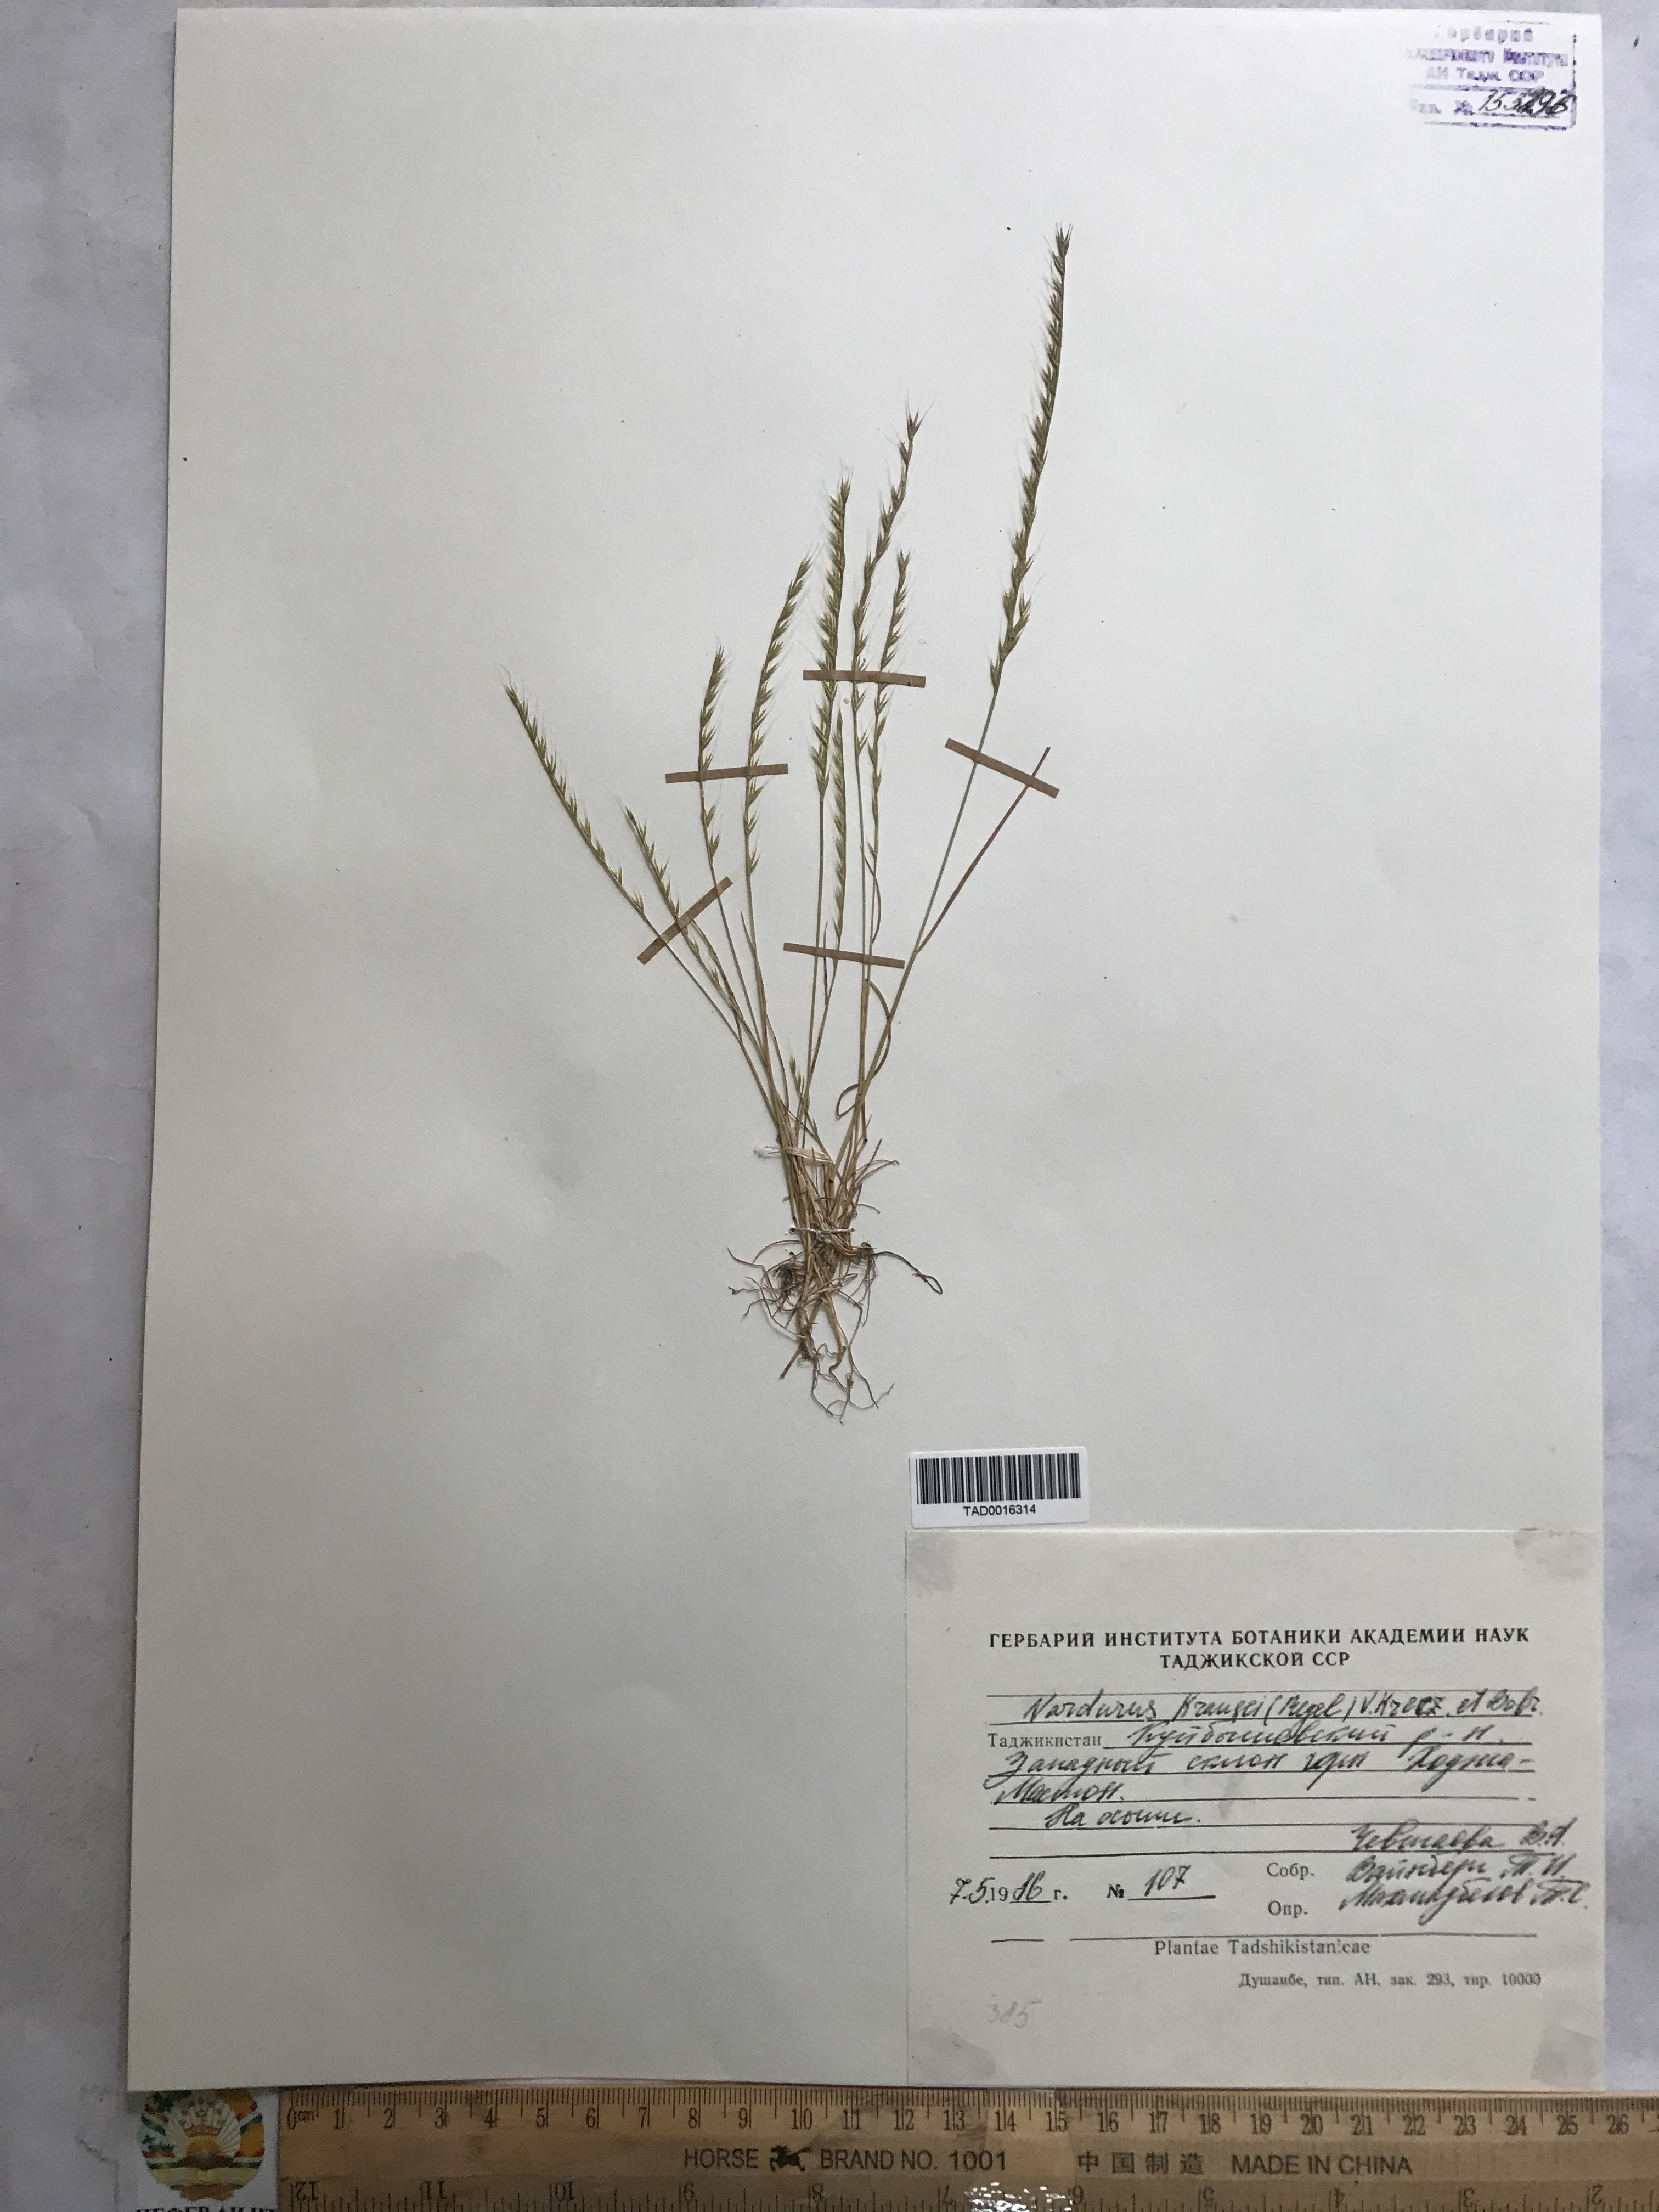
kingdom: Plantae
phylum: Tracheophyta
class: Liliopsida
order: Poales
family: Poaceae
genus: Festuca
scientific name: Festuca maritima
